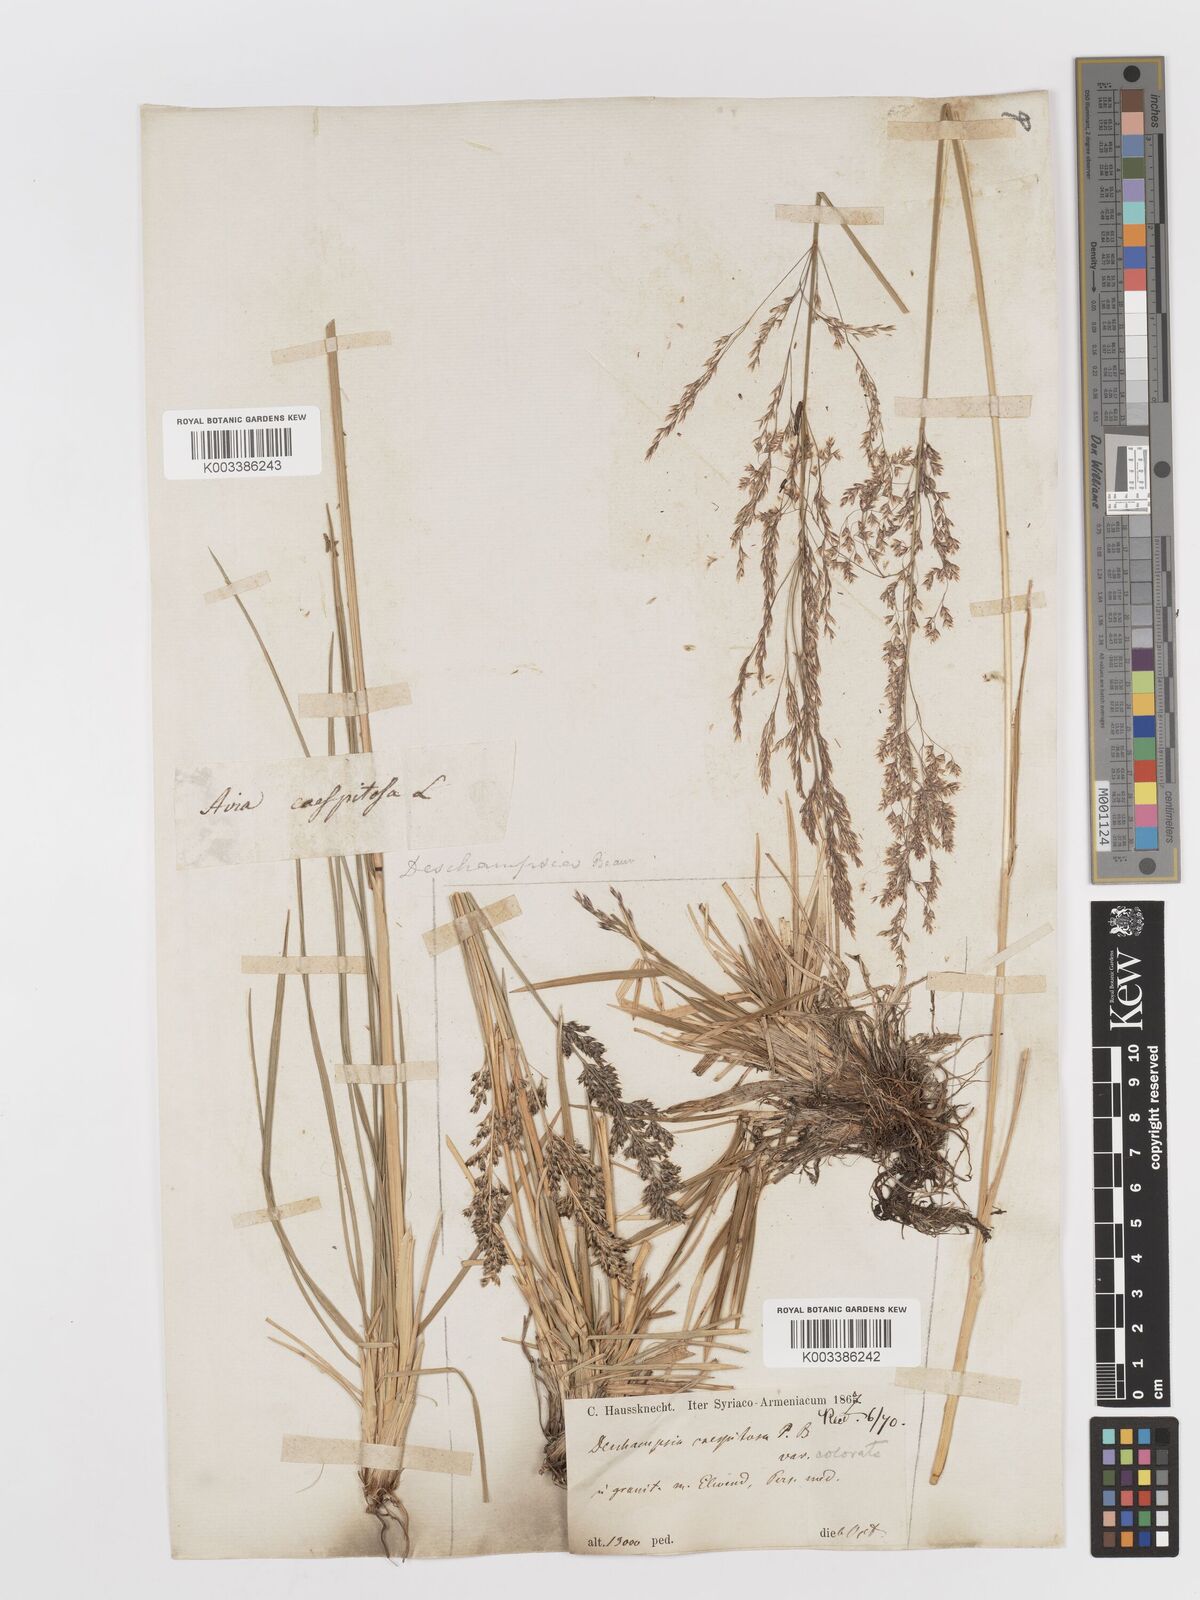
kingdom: Plantae
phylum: Tracheophyta
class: Liliopsida
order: Poales
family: Poaceae
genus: Deschampsia
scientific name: Deschampsia cespitosa
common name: Tufted hair-grass
